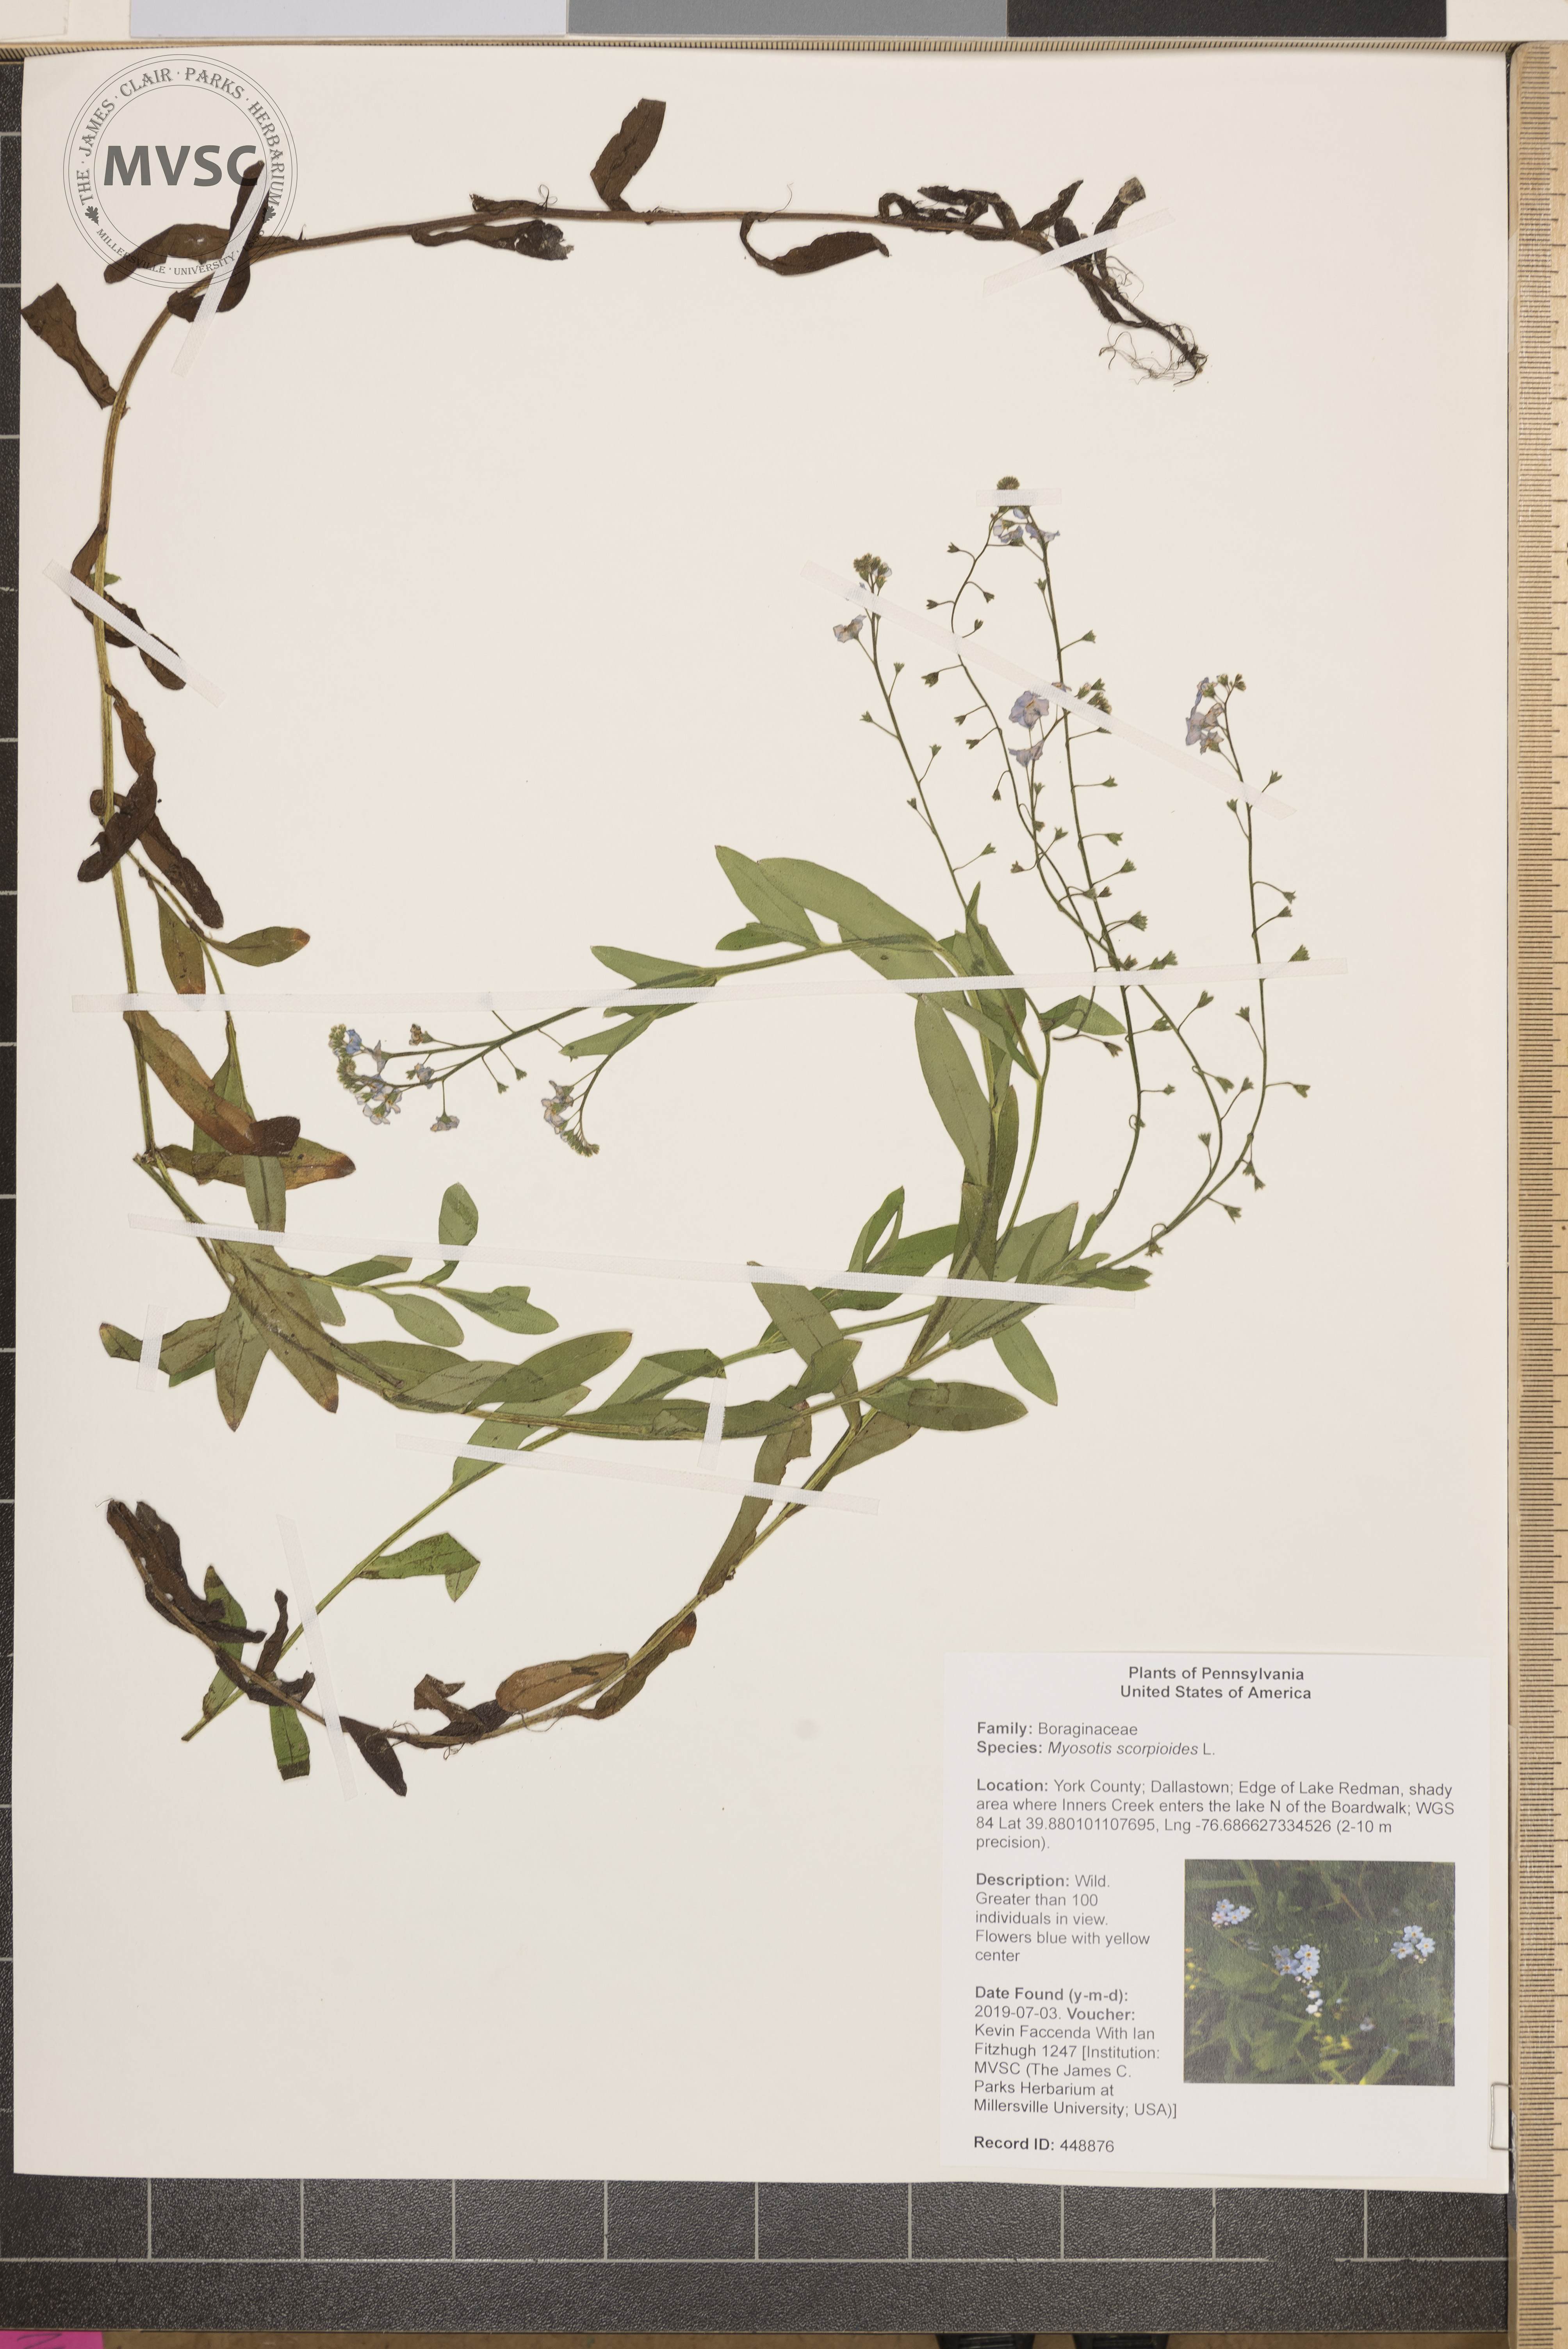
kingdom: Plantae
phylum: Tracheophyta
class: Magnoliopsida
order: Boraginales
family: Boraginaceae
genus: Myosotis
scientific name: Myosotis scorpioides
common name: Water forget-me-not
